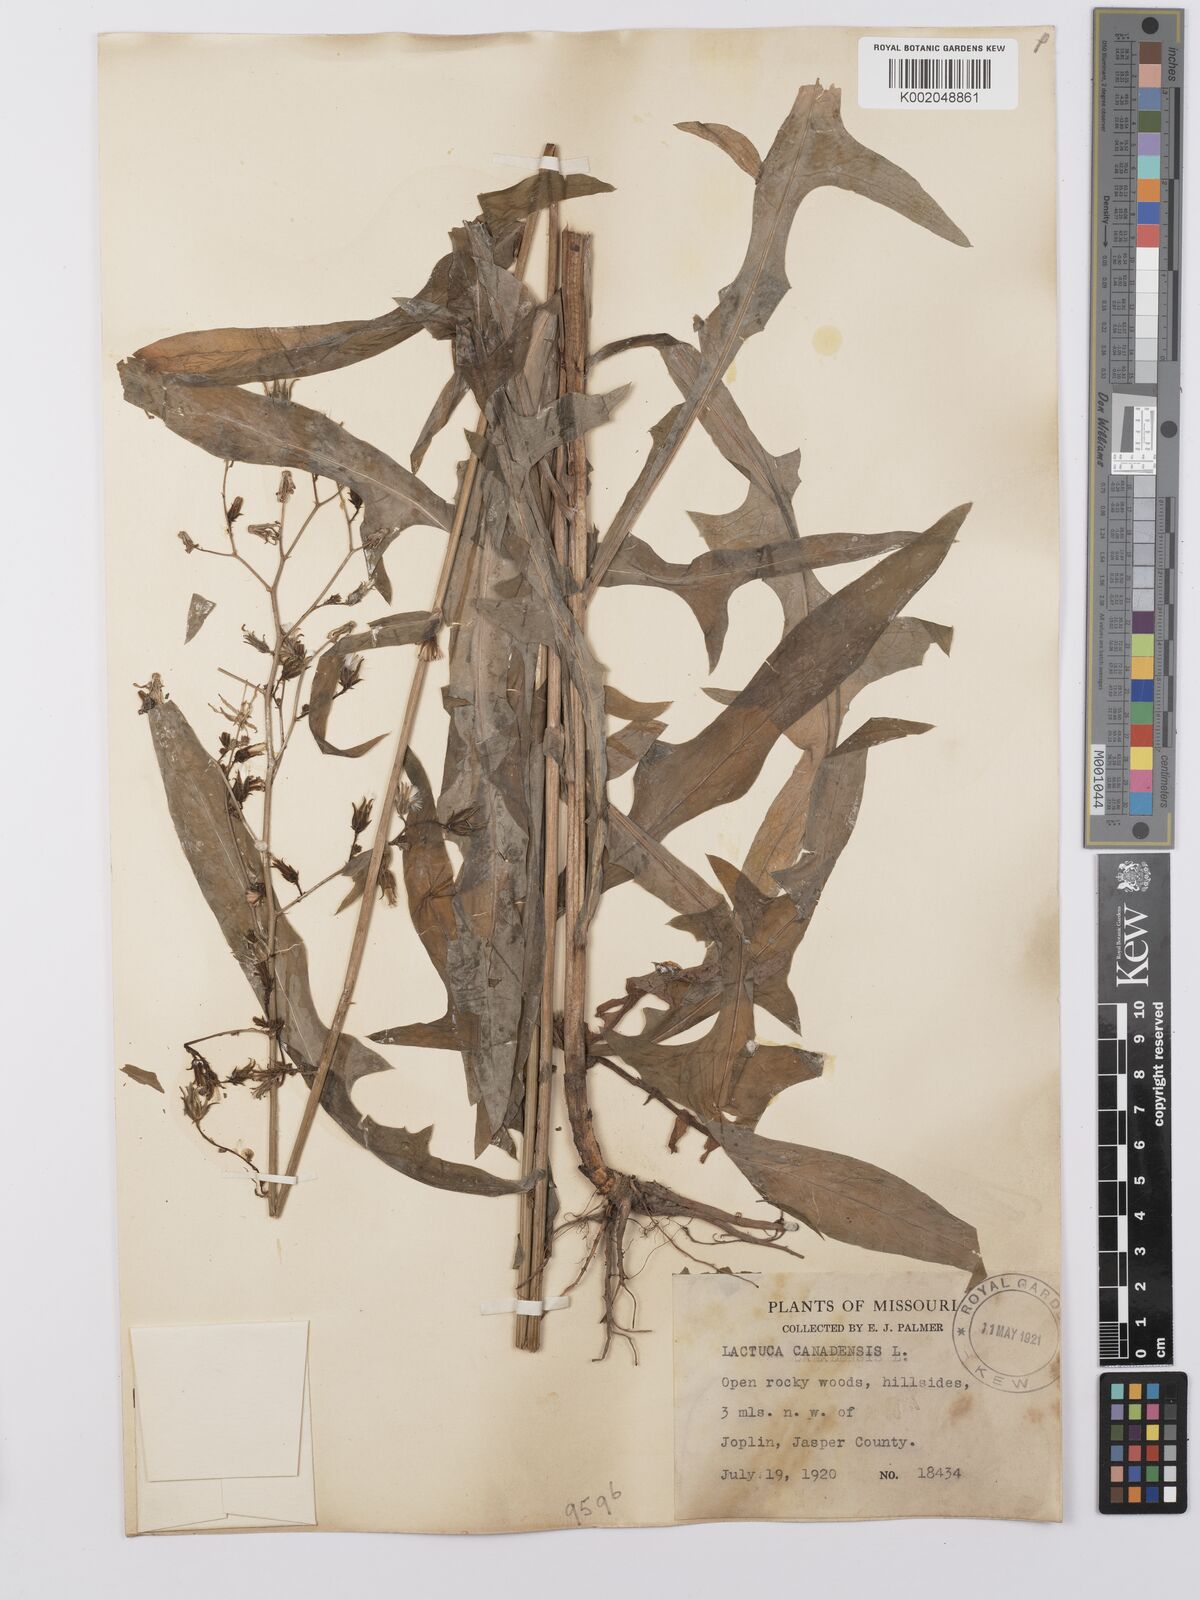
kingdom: Plantae
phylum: Tracheophyta
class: Magnoliopsida
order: Asterales
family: Asteraceae
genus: Lactuca
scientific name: Lactuca canadensis
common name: Canada lettuce
